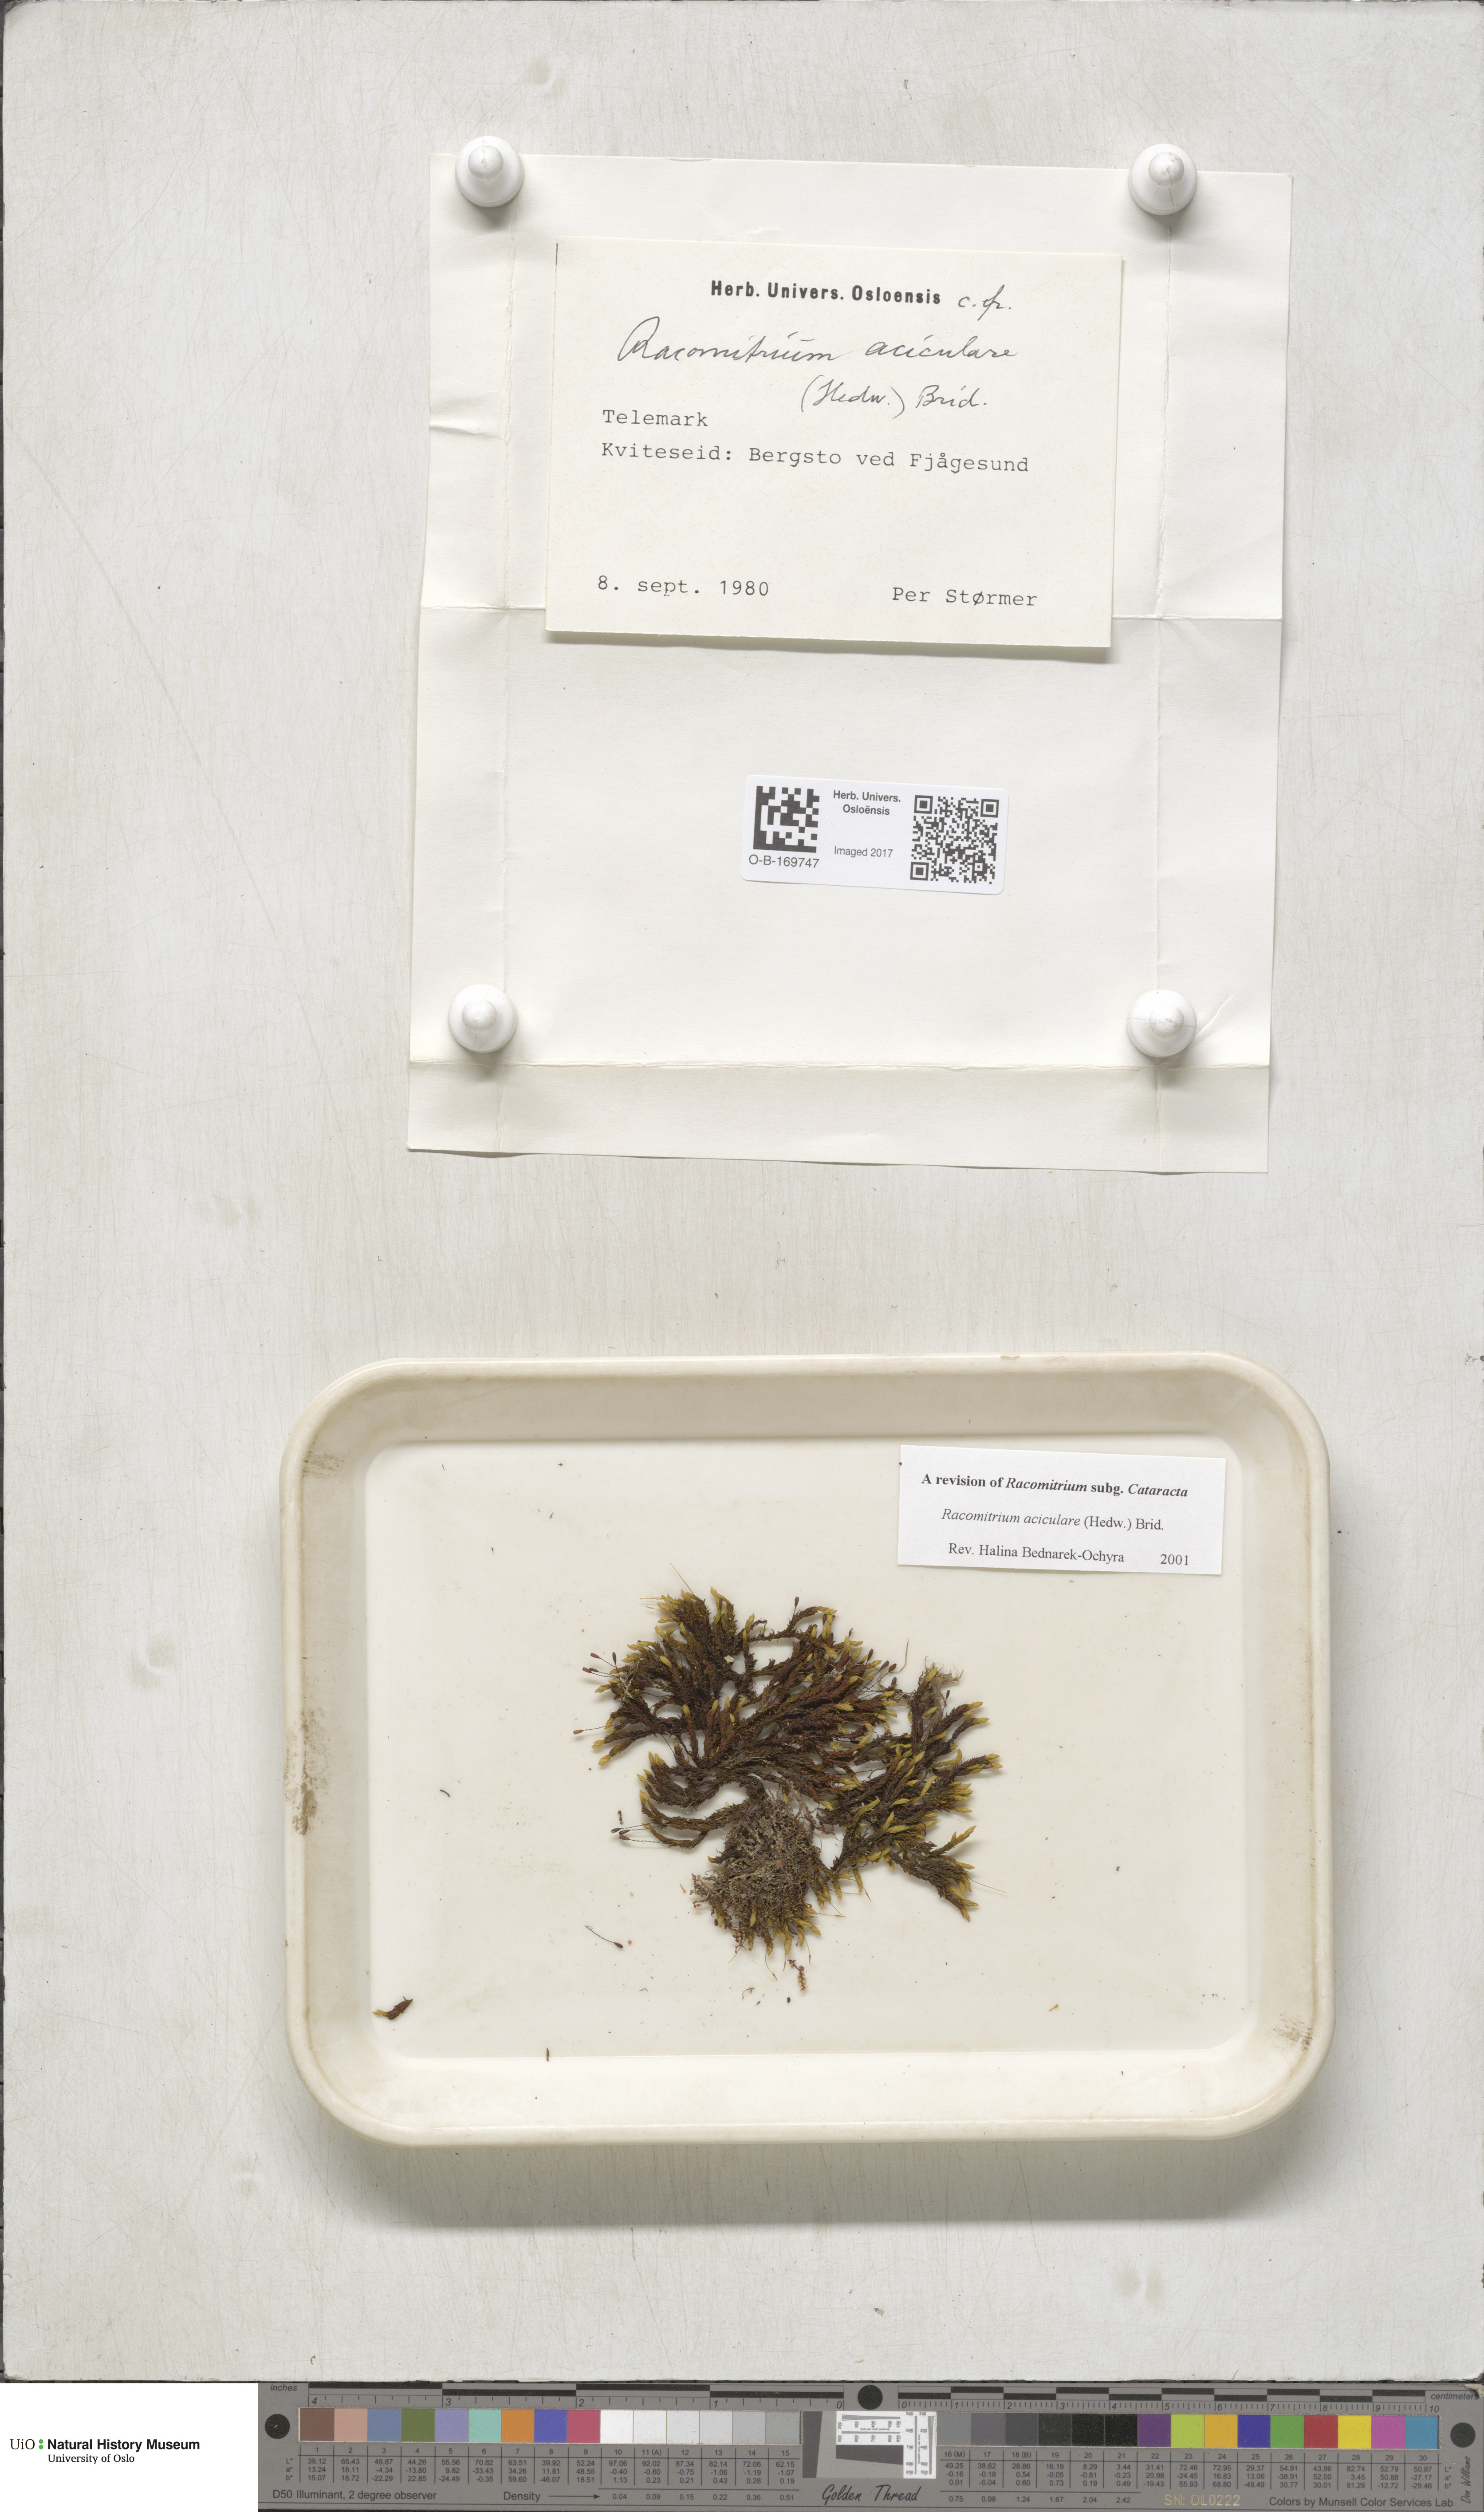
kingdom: Plantae
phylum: Bryophyta
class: Bryopsida
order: Grimmiales
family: Grimmiaceae
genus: Codriophorus
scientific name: Codriophorus acicularis
